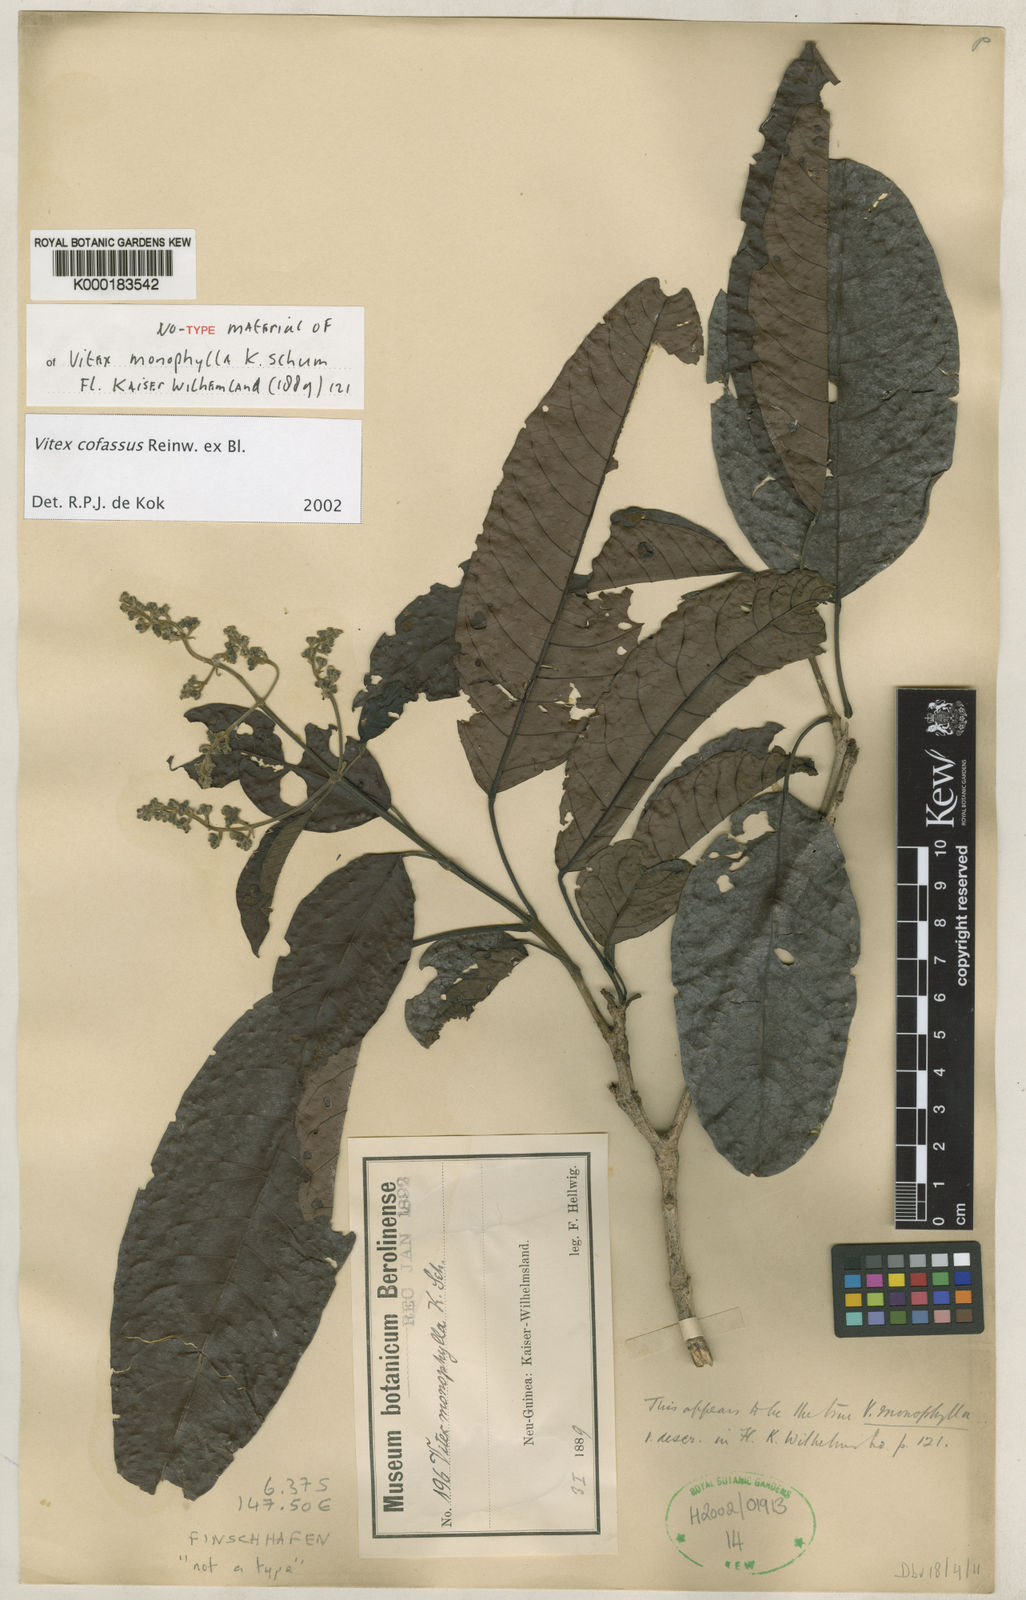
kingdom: Plantae
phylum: Tracheophyta
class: Magnoliopsida
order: Lamiales
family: Lamiaceae
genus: Vitex
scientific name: Vitex cofassus
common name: New guinea-teak
